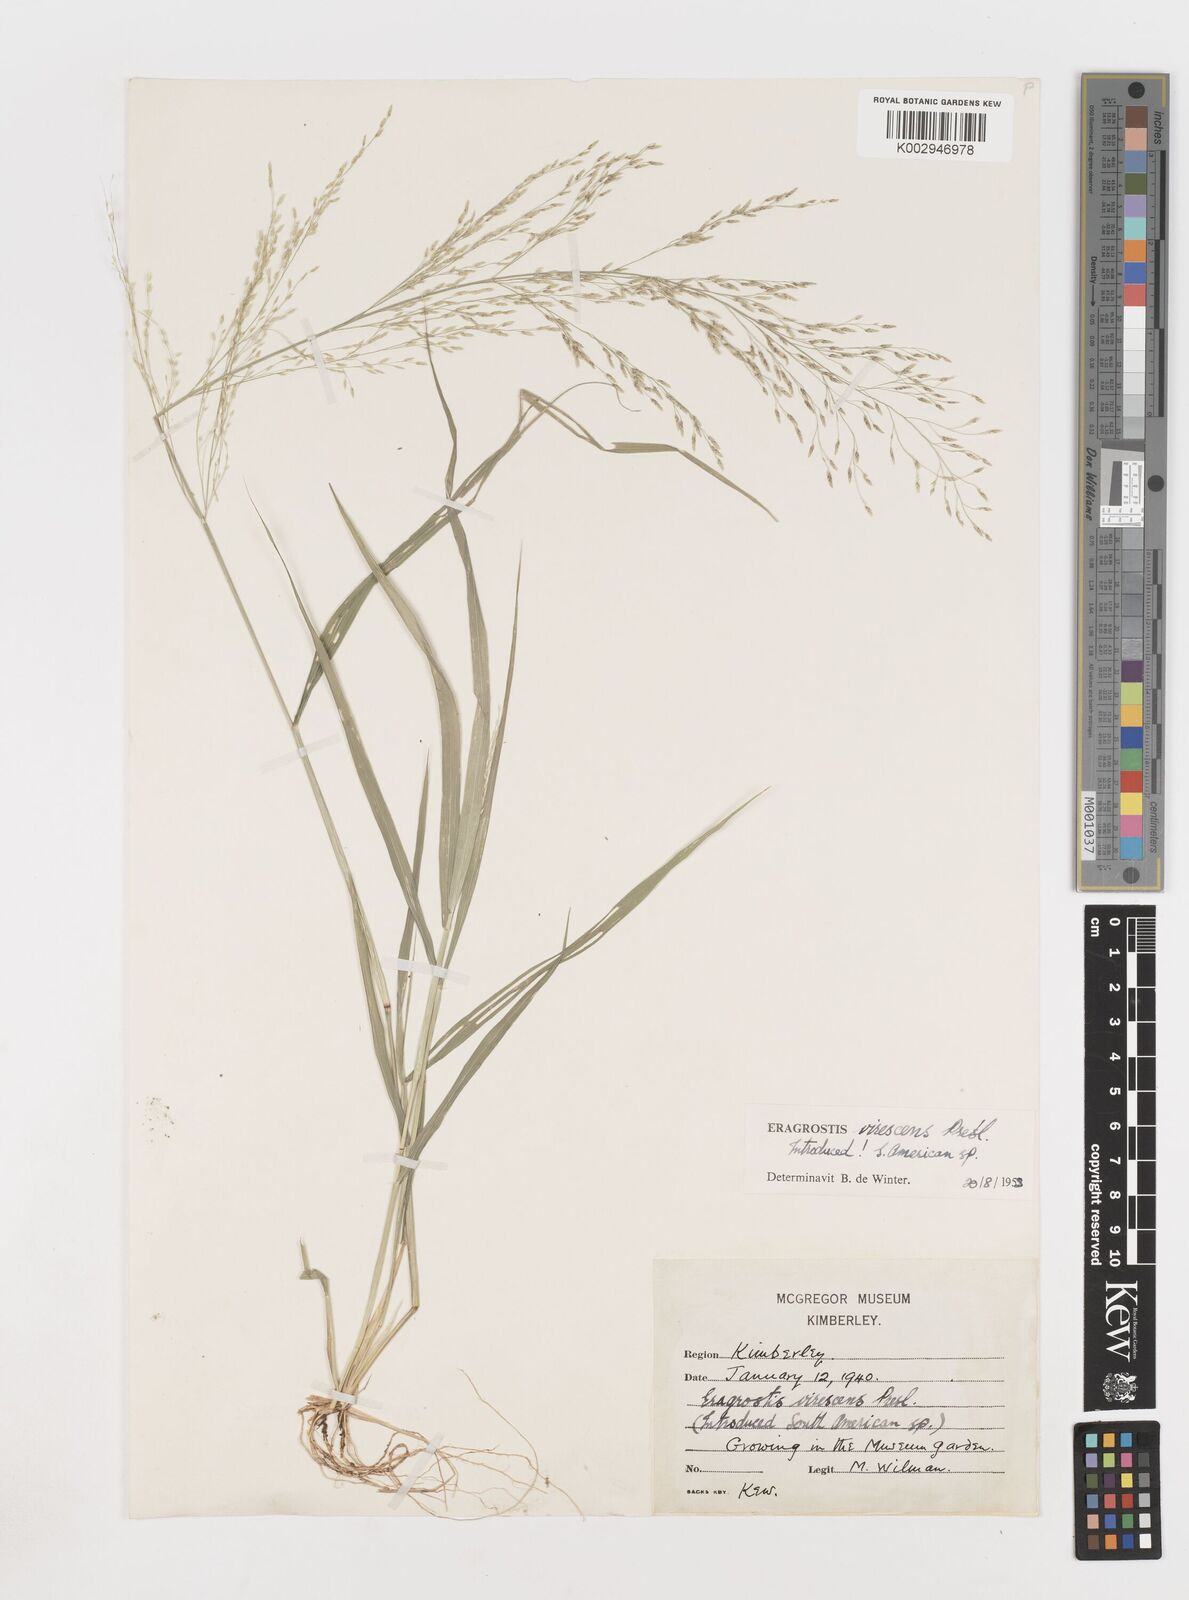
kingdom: Plantae
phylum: Tracheophyta
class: Liliopsida
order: Poales
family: Poaceae
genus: Eragrostis
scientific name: Eragrostis
